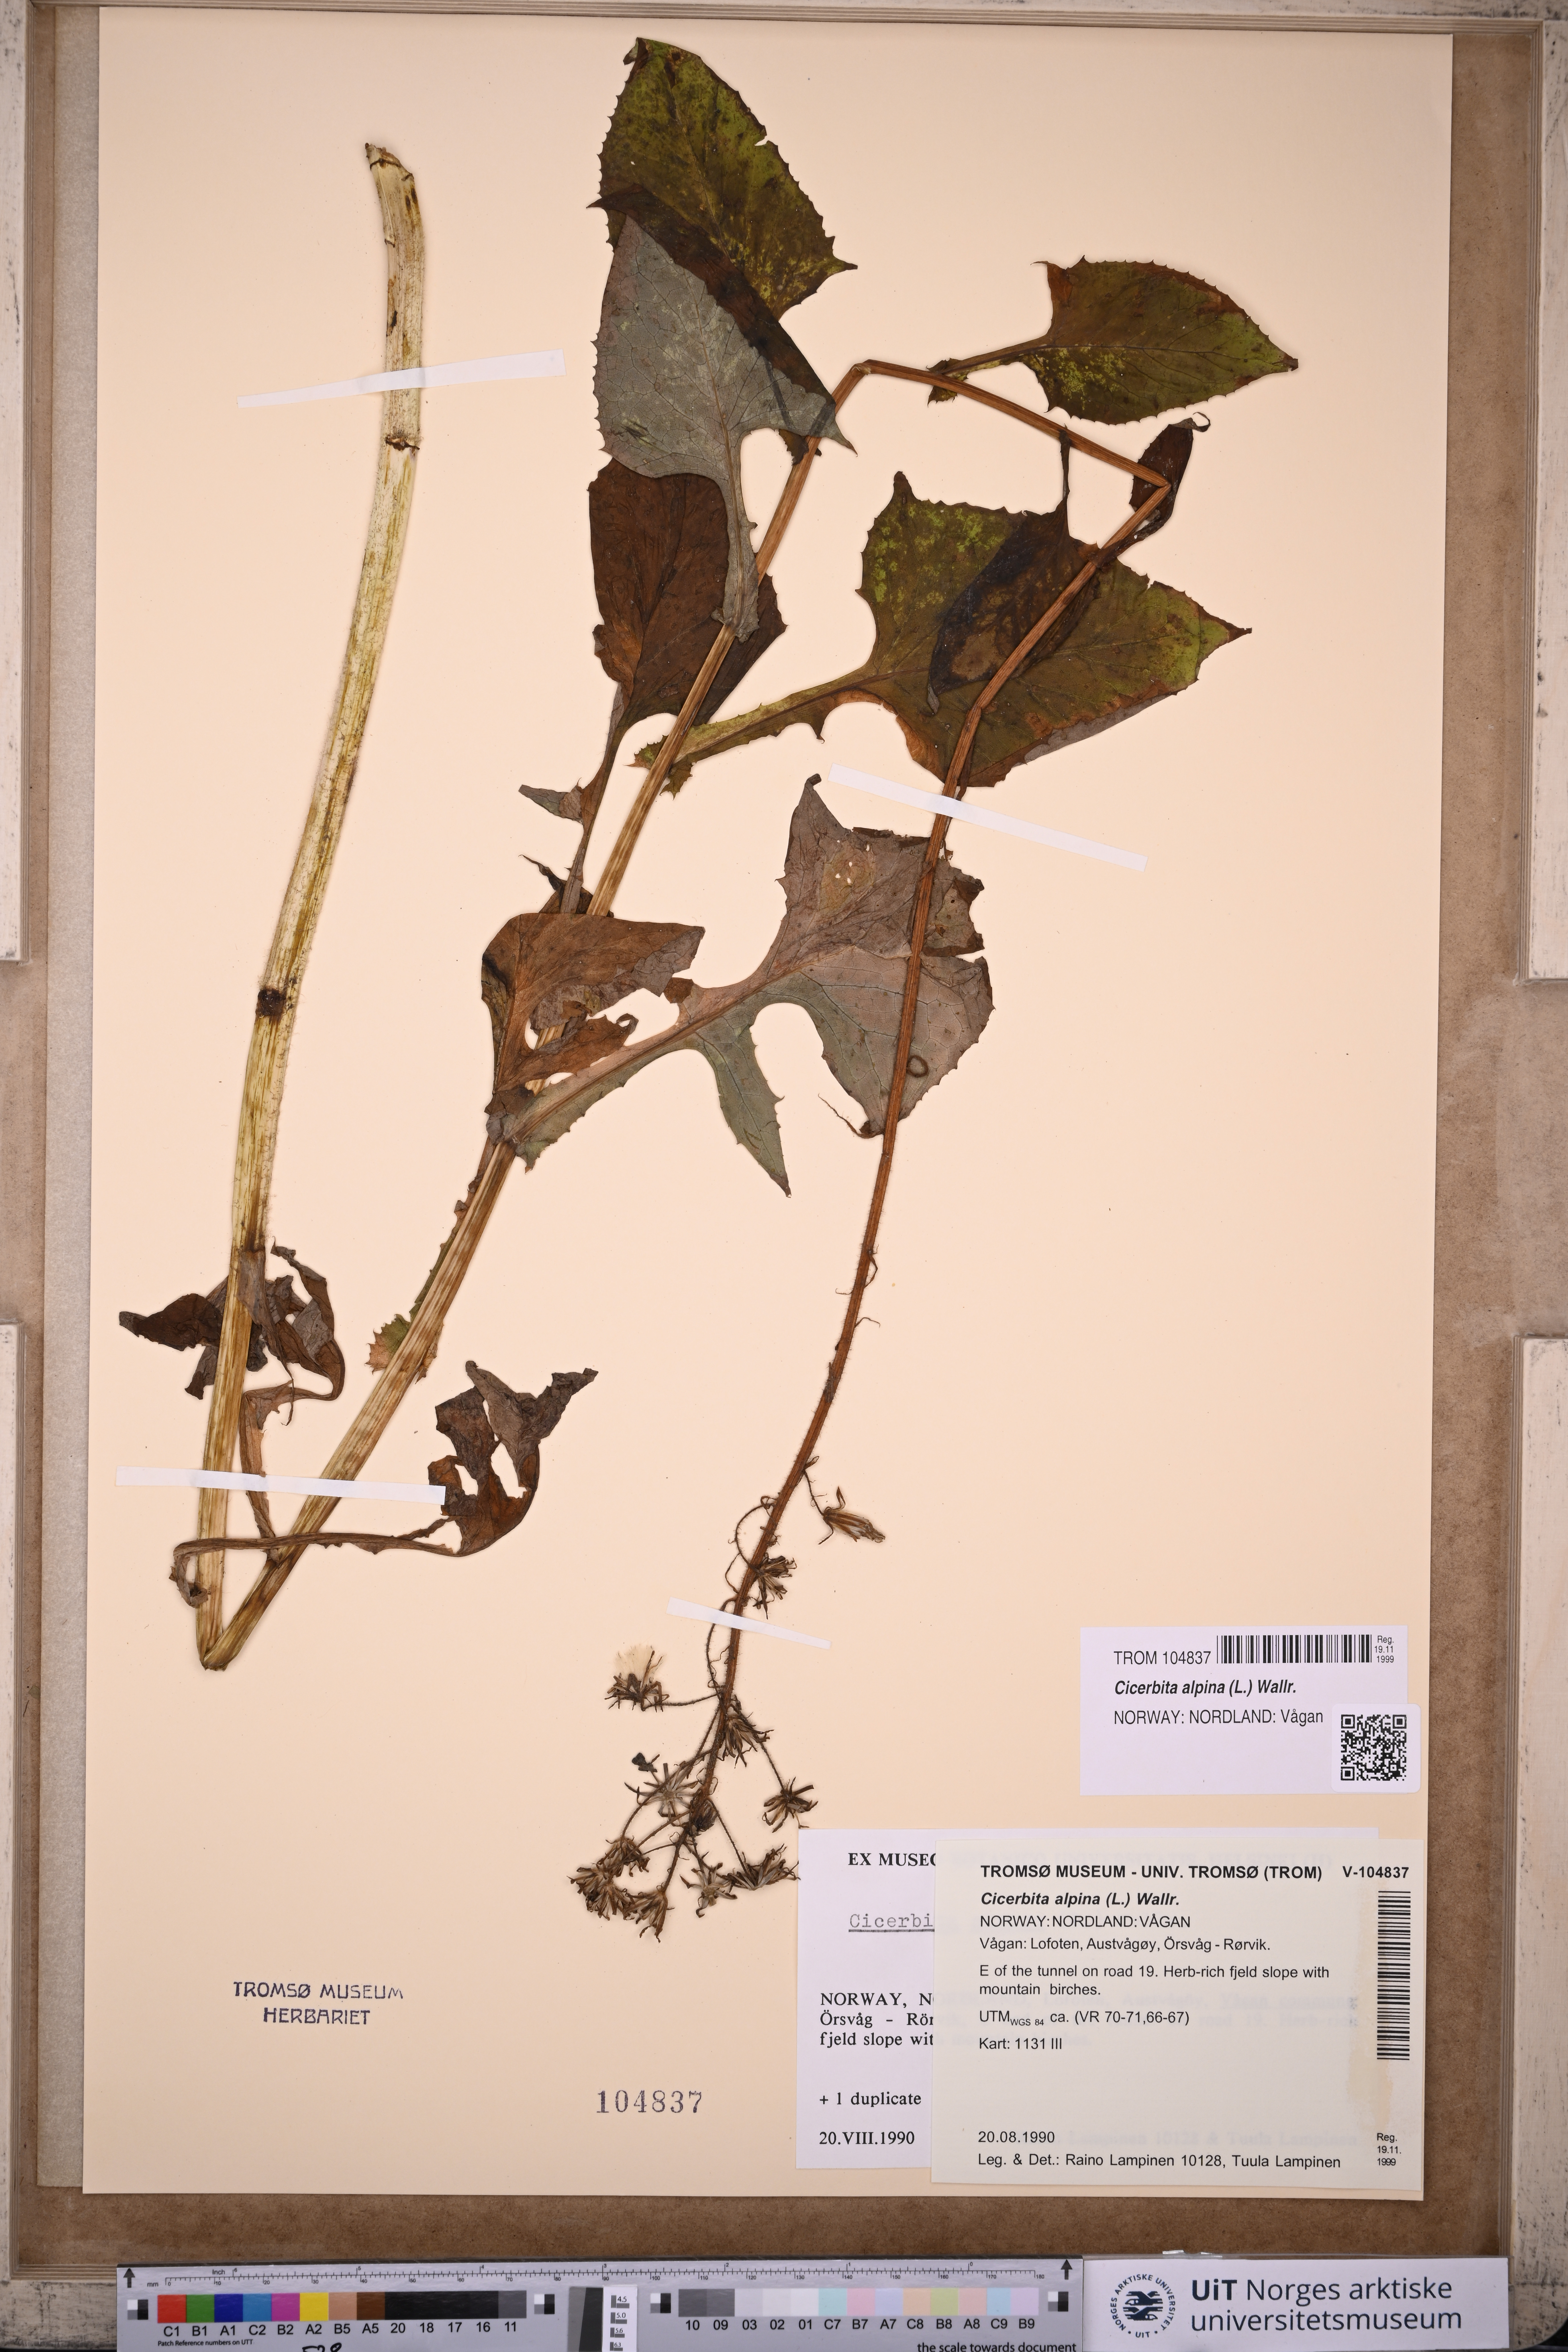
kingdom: Plantae
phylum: Tracheophyta
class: Magnoliopsida
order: Asterales
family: Asteraceae
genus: Cicerbita
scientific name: Cicerbita alpina
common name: Alpine blue-sow-thistle
